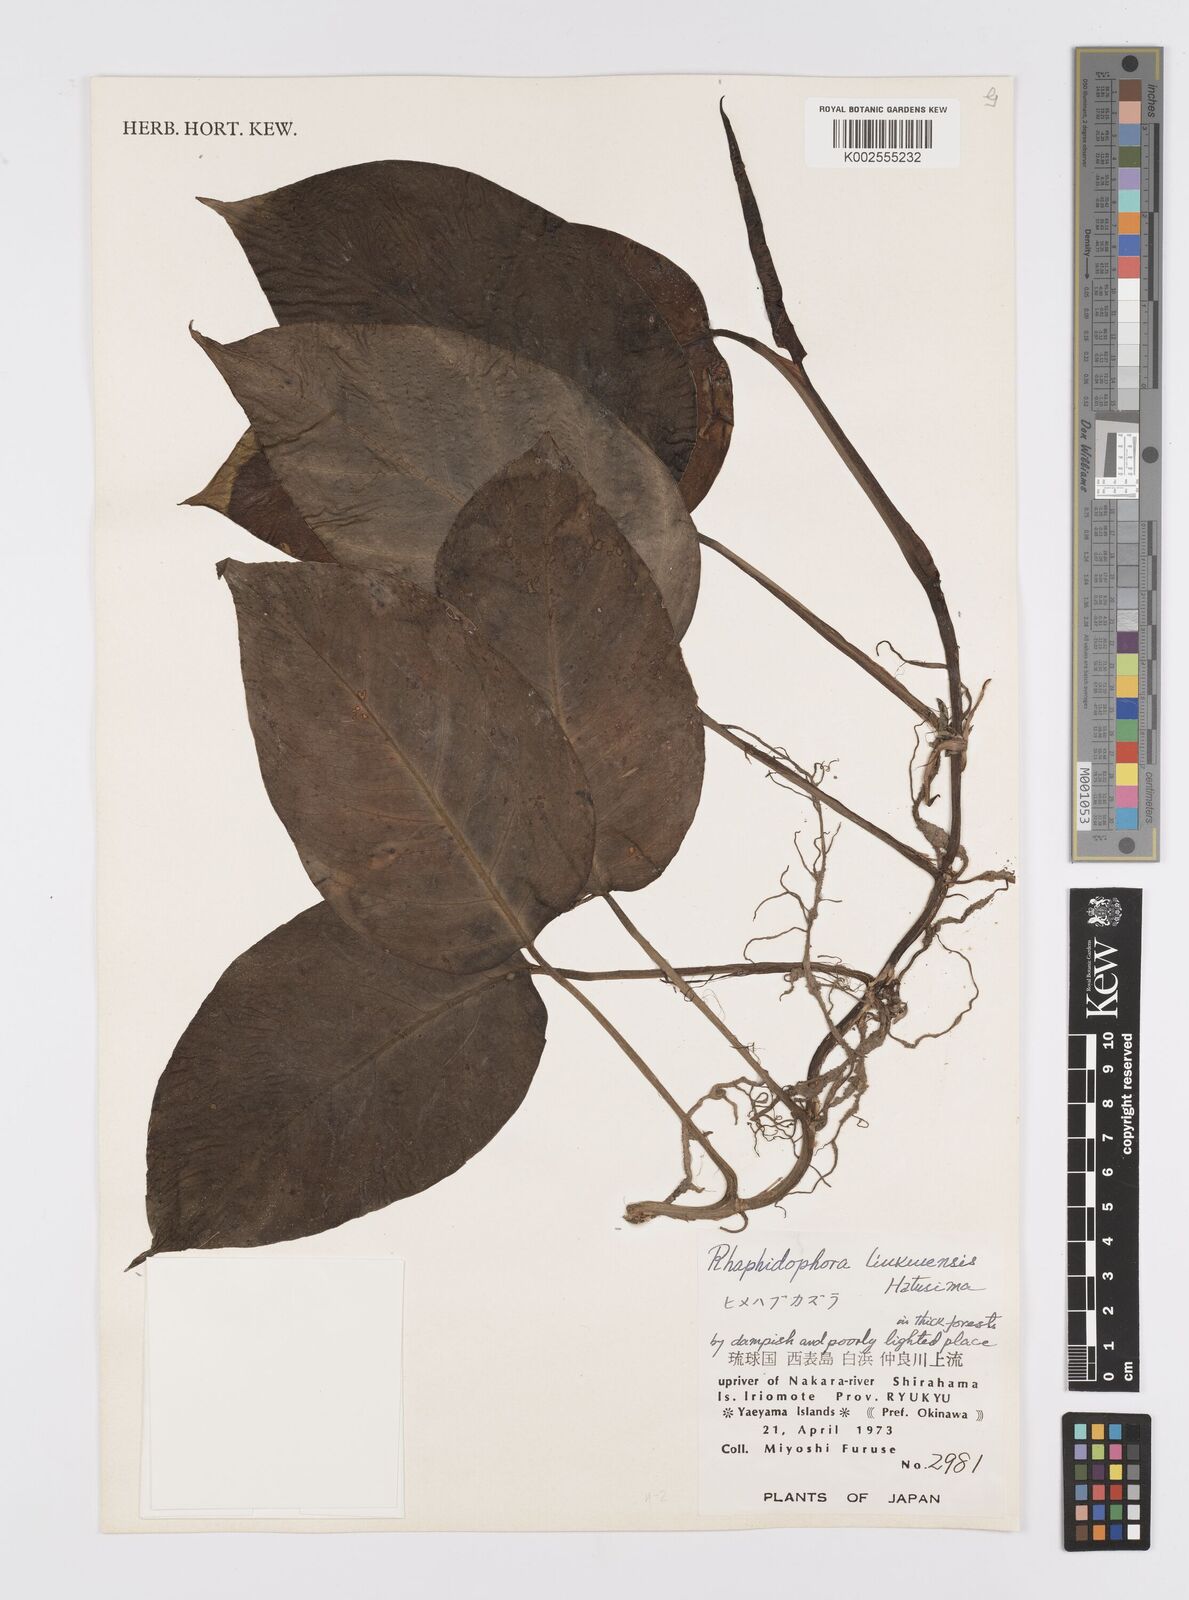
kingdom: Plantae
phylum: Tracheophyta
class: Liliopsida
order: Alismatales
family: Araceae
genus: Epipremnum
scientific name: Epipremnum pinnatum
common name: Centipede tongavine
